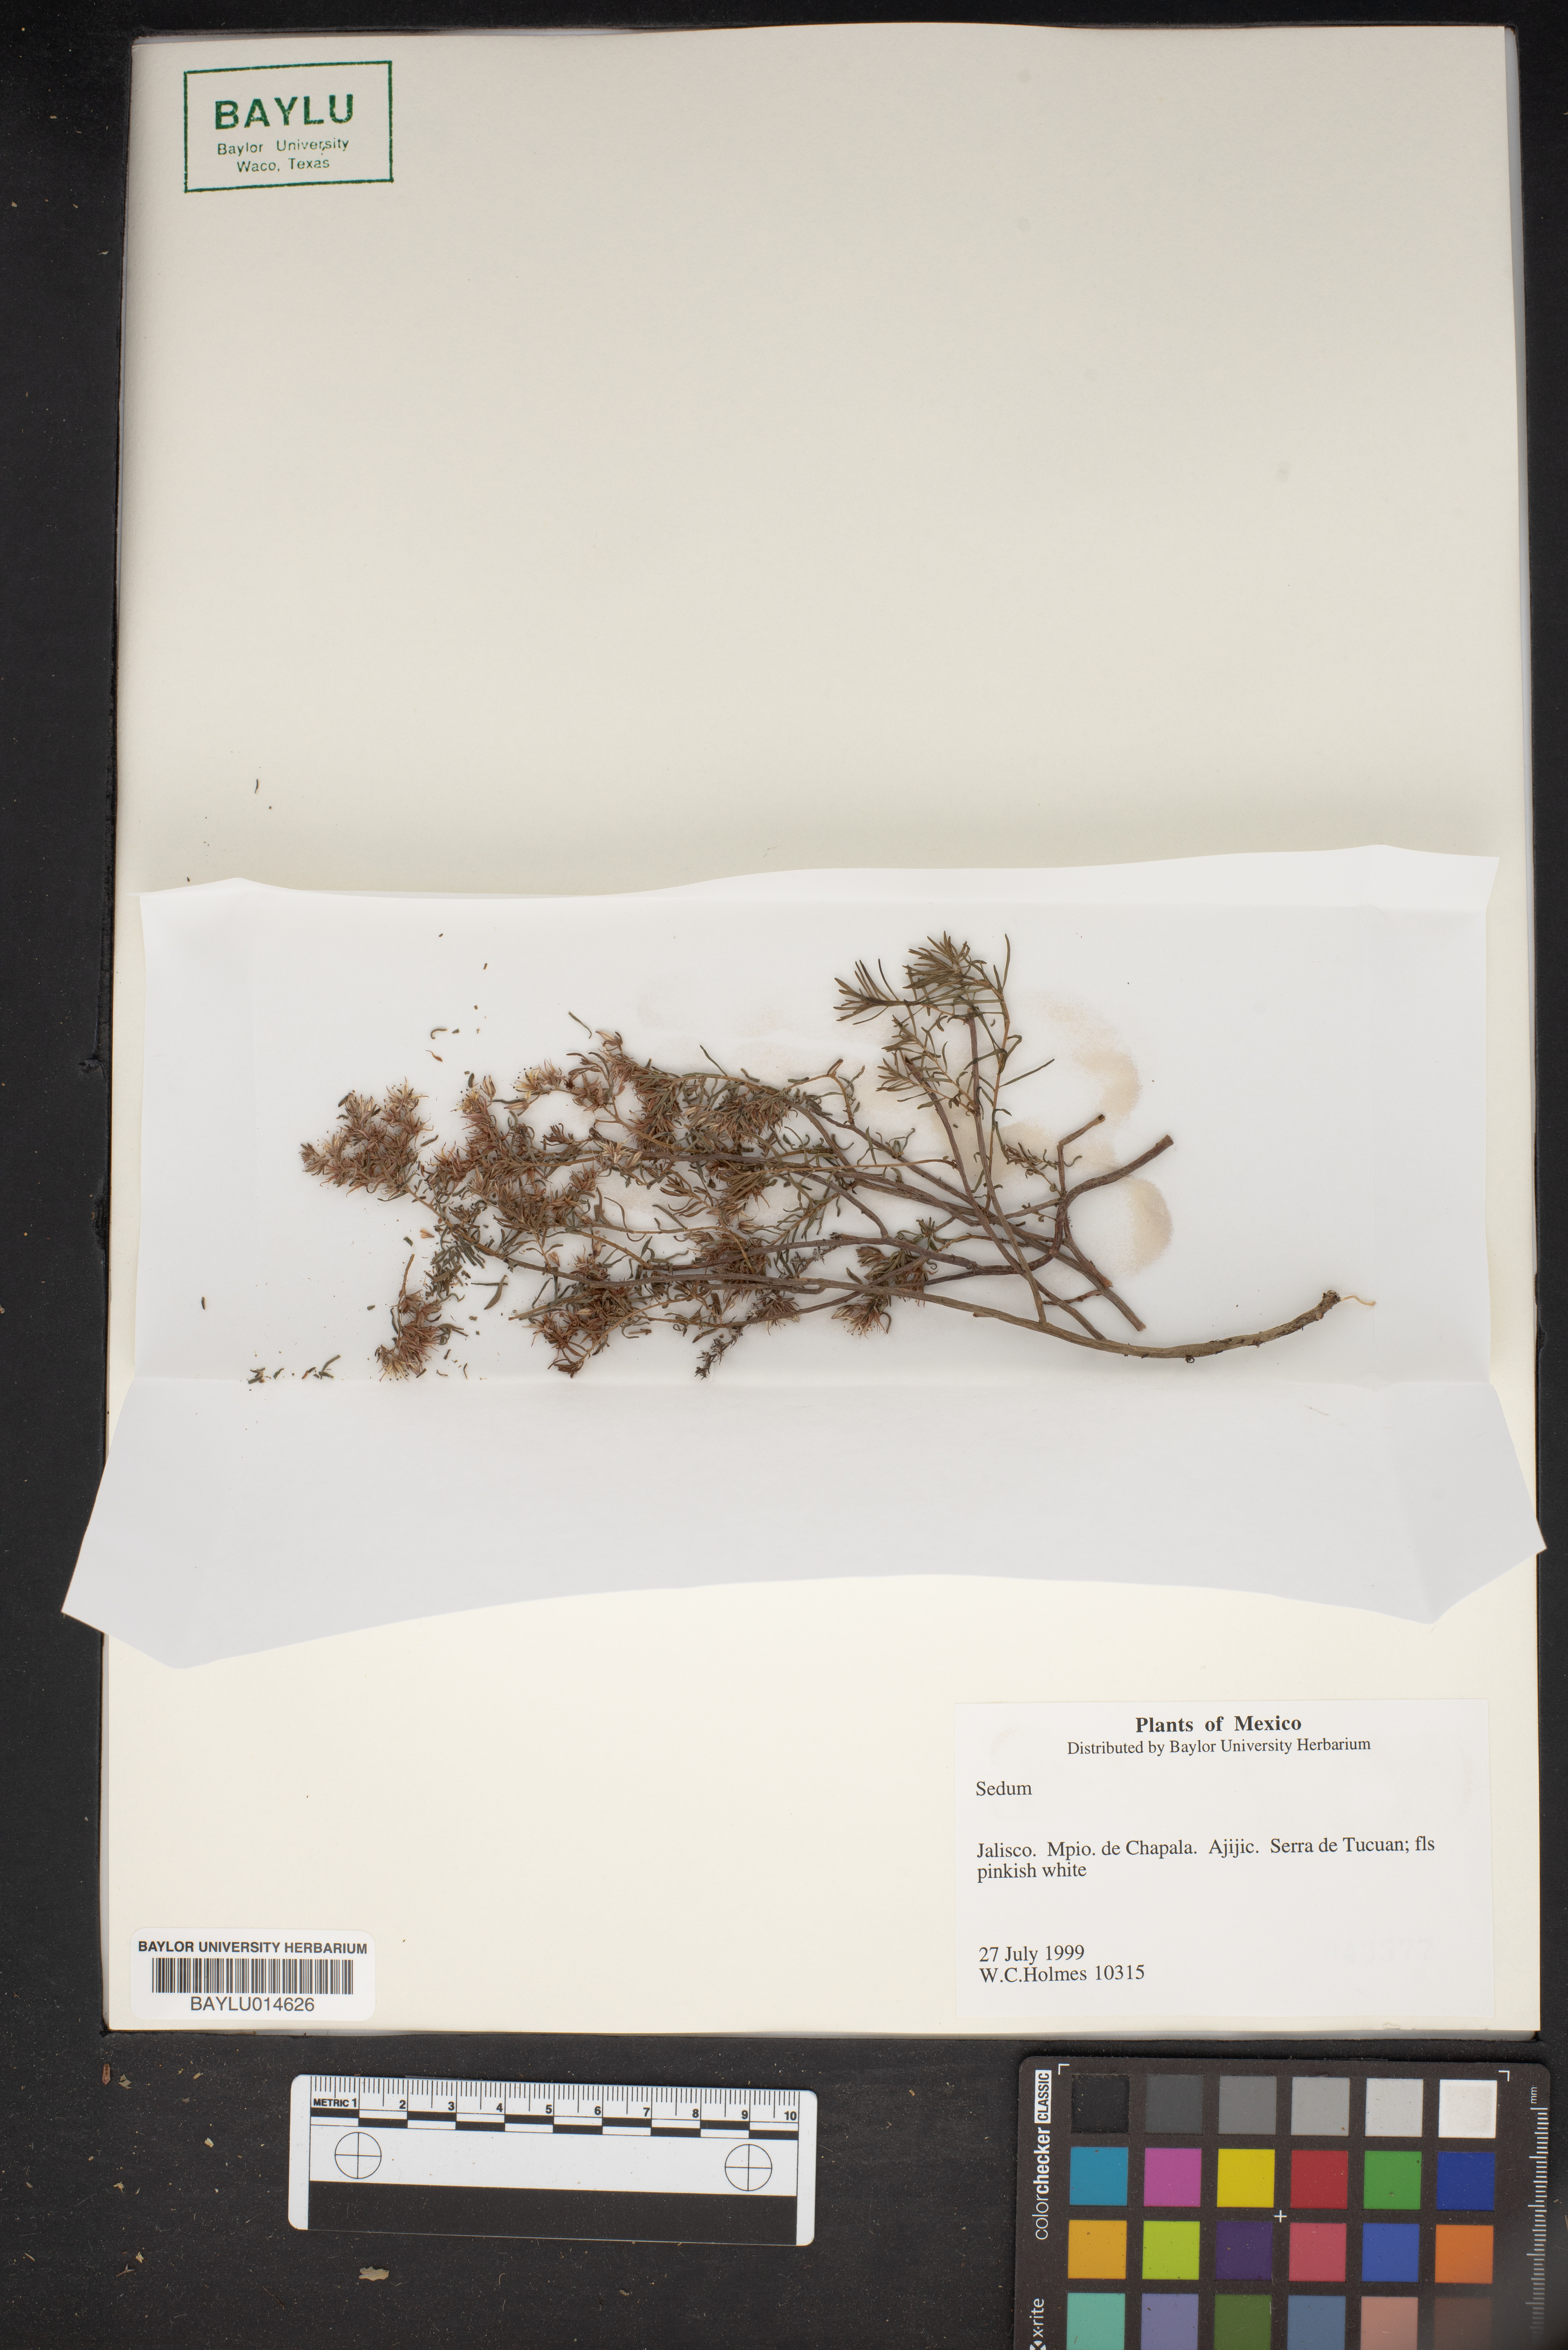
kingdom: Plantae
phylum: Tracheophyta
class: Magnoliopsida
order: Saxifragales
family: Crassulaceae
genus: Sedum
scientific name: Sedum
